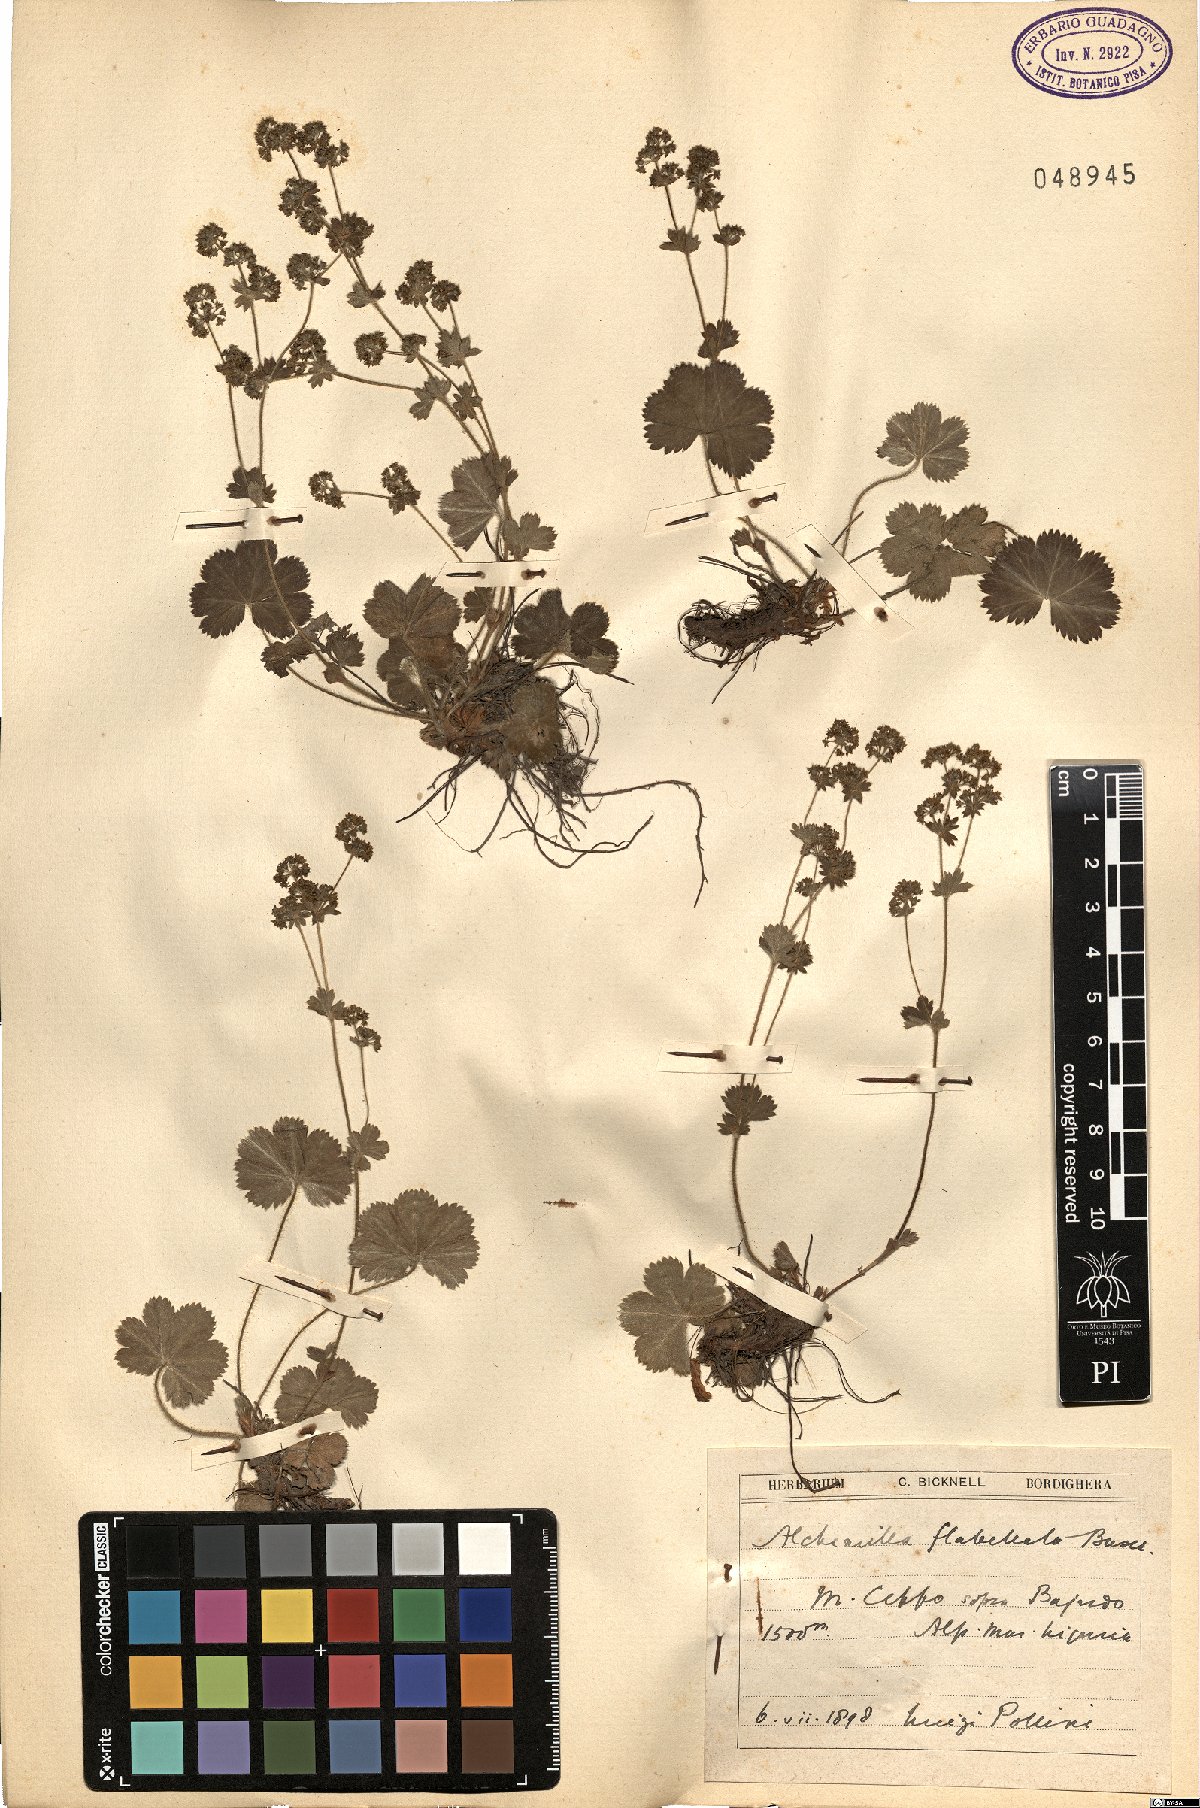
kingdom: Plantae
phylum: Tracheophyta
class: Magnoliopsida
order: Rosales
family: Rosaceae
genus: Alchemilla
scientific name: Alchemilla flabellata
